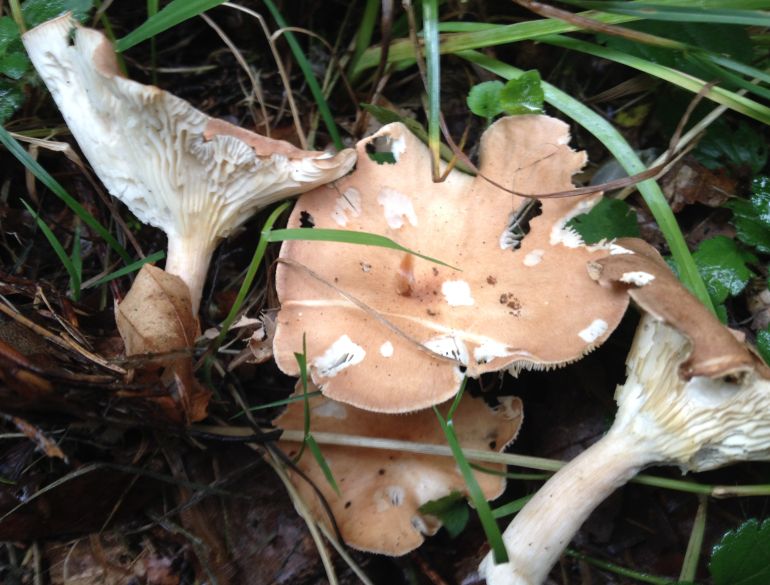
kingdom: Fungi
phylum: Basidiomycota
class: Agaricomycetes
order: Agaricales
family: Tricholomataceae
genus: Infundibulicybe
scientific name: Infundibulicybe gibba
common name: almindelig tragthat
